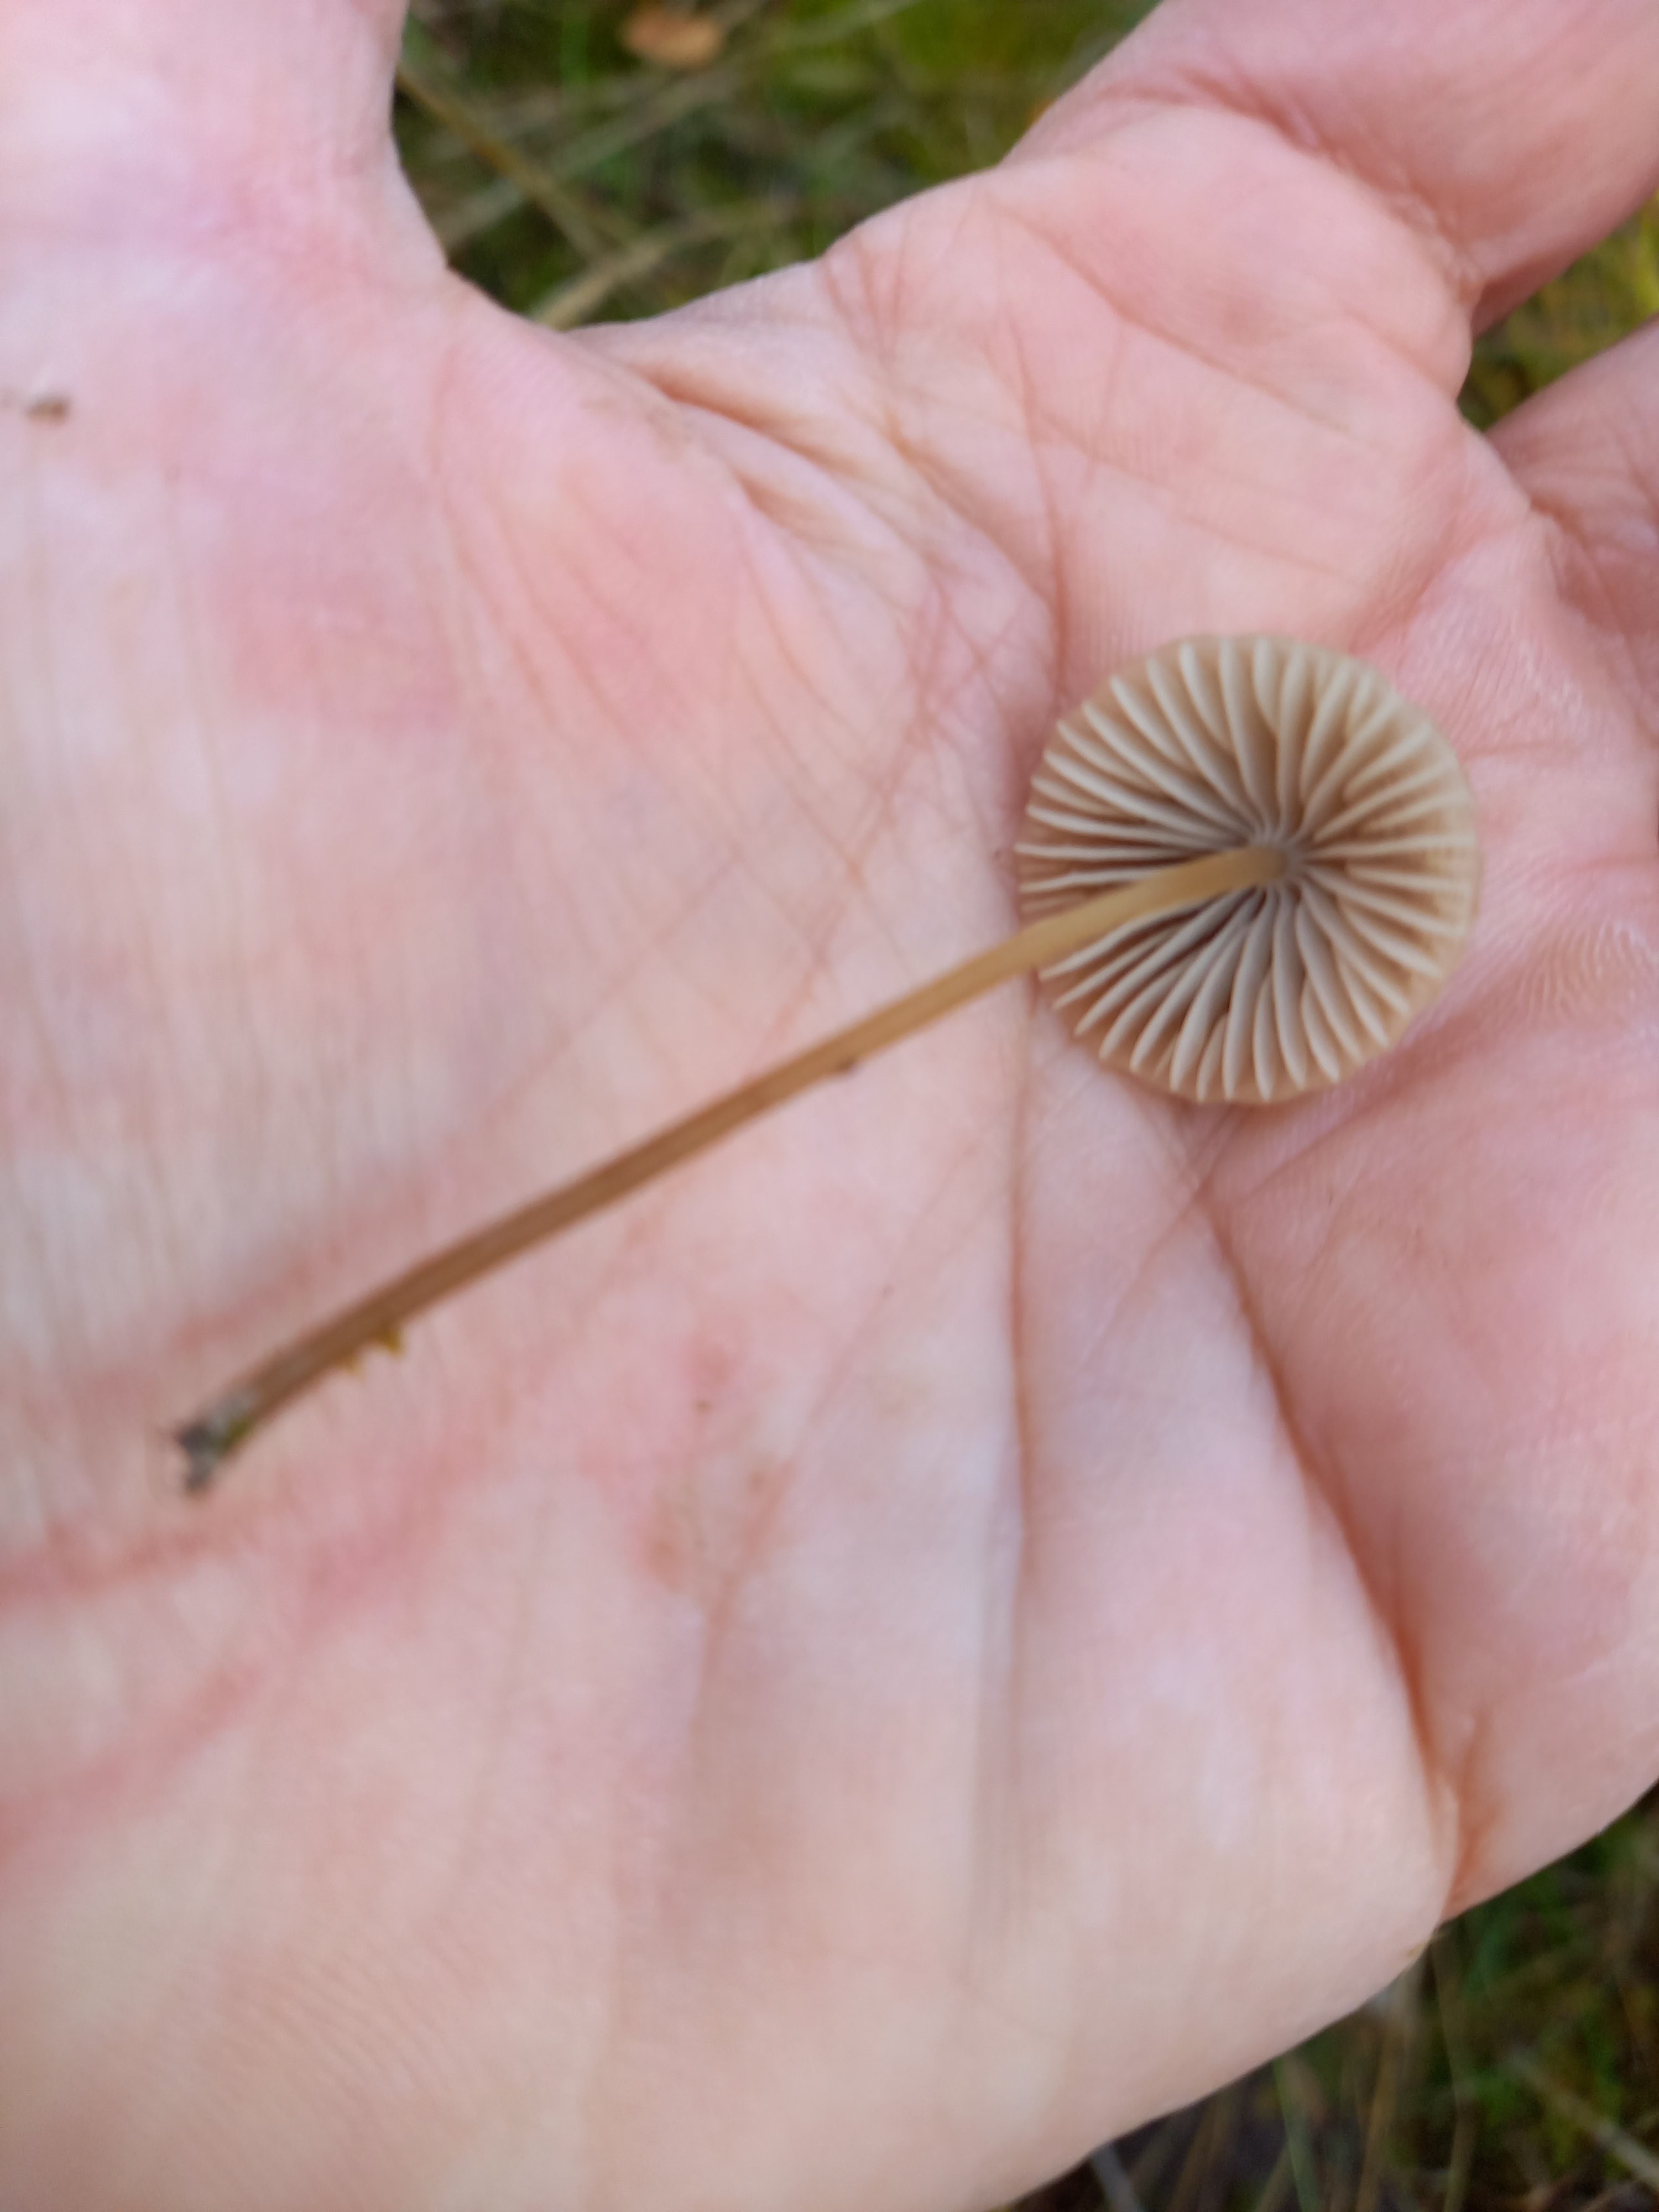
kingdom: Fungi
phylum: Basidiomycota
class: Agaricomycetes
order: Agaricales
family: Mycenaceae
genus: Mycena
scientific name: Mycena olivaceomarginata
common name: brunægget huesvamp
